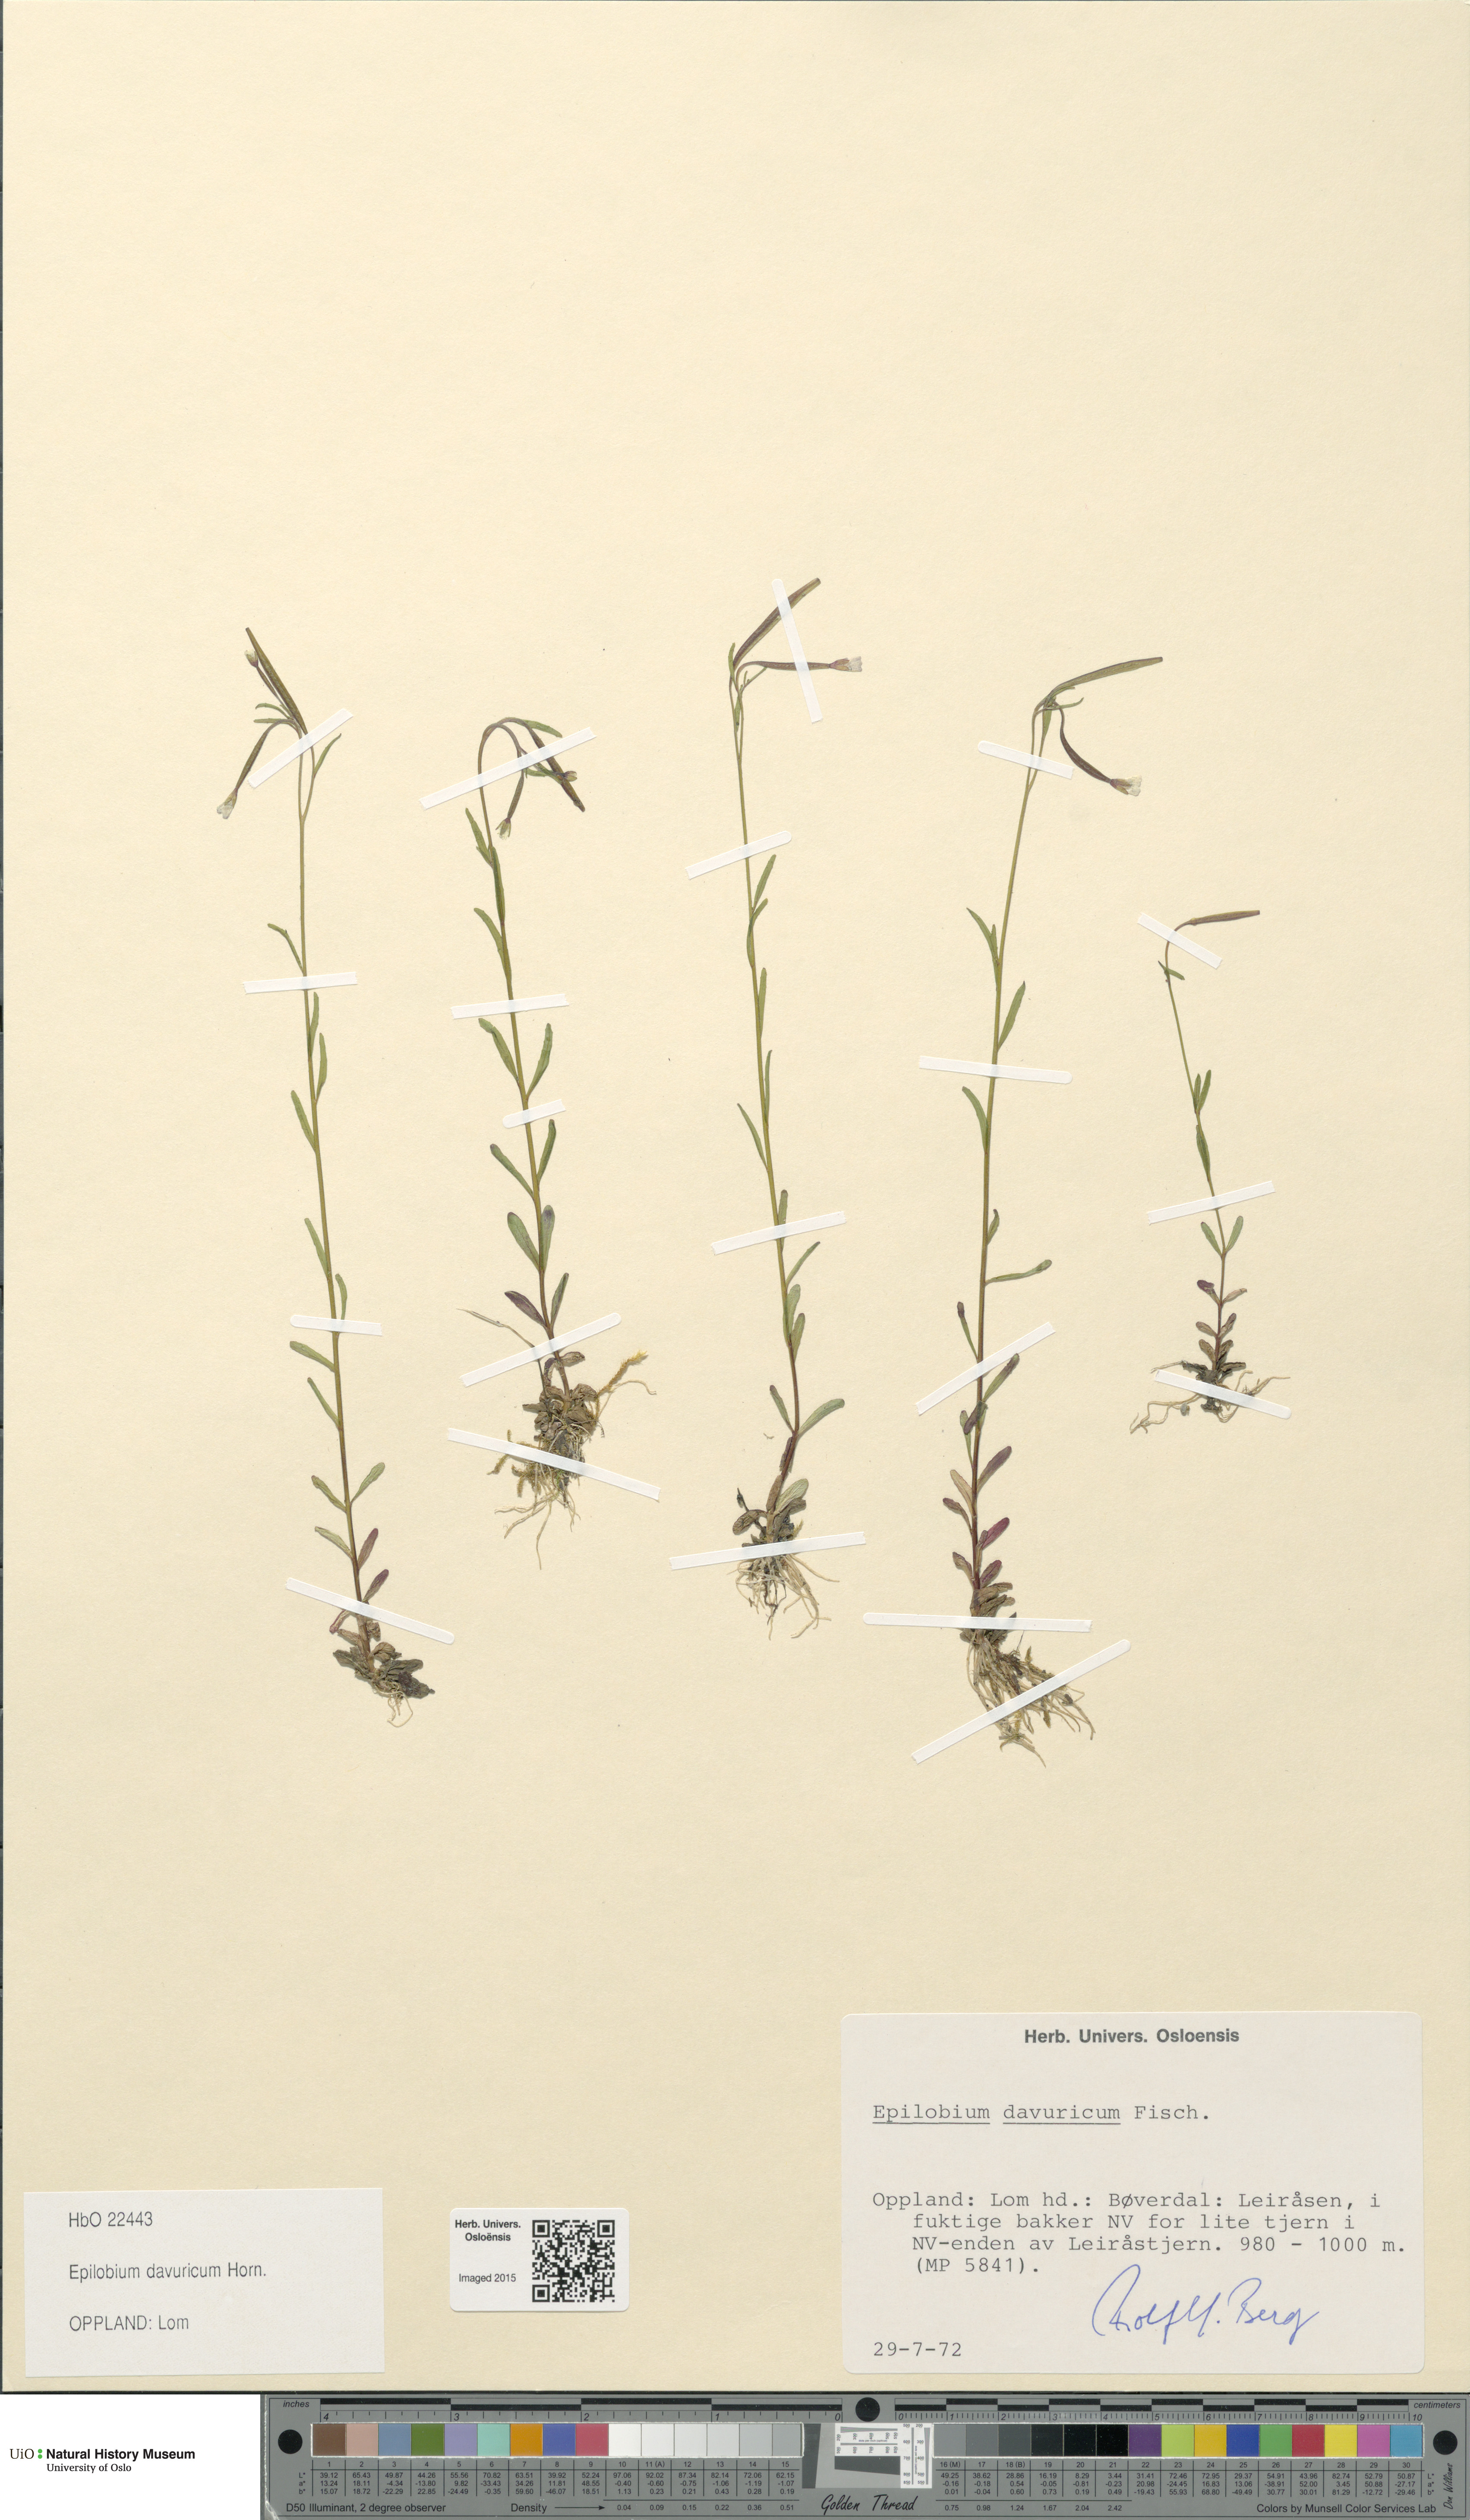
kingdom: Plantae
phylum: Tracheophyta
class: Magnoliopsida
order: Myrtales
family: Onagraceae
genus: Epilobium
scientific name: Epilobium davuricum
